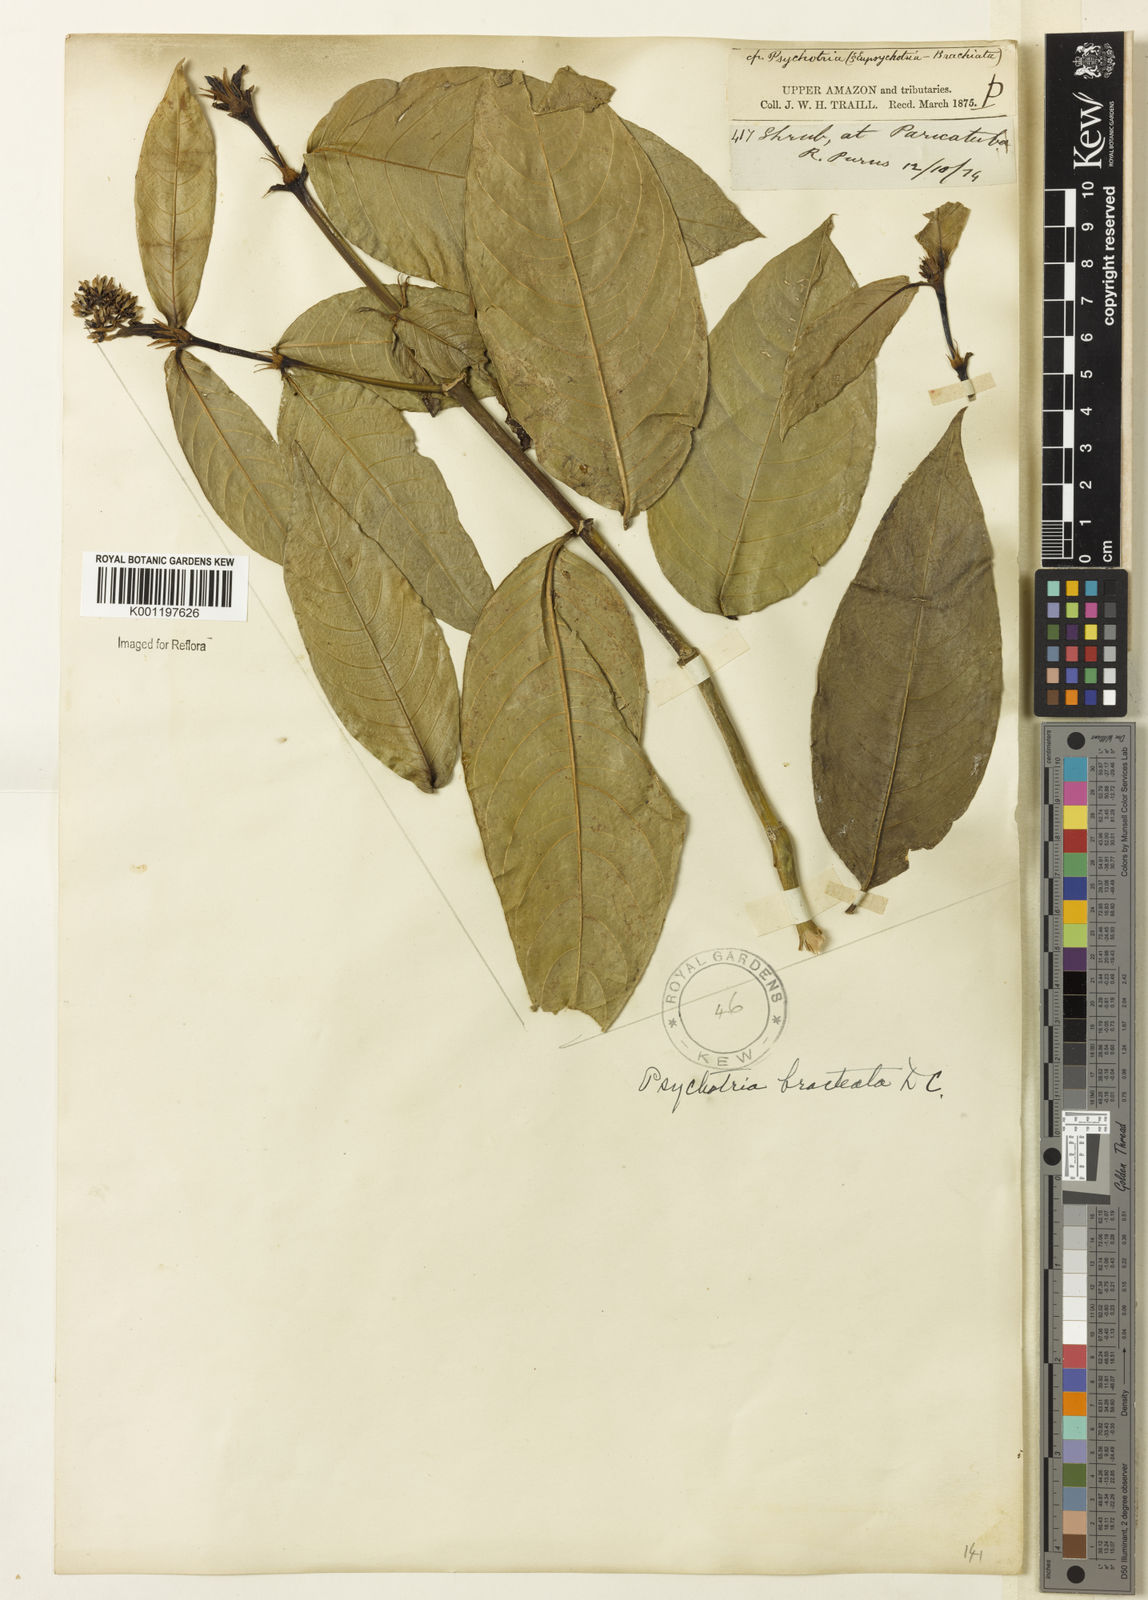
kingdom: Plantae
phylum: Tracheophyta
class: Magnoliopsida
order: Gentianales
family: Rubiaceae
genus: Palicourea
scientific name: Palicourea maguireorum
